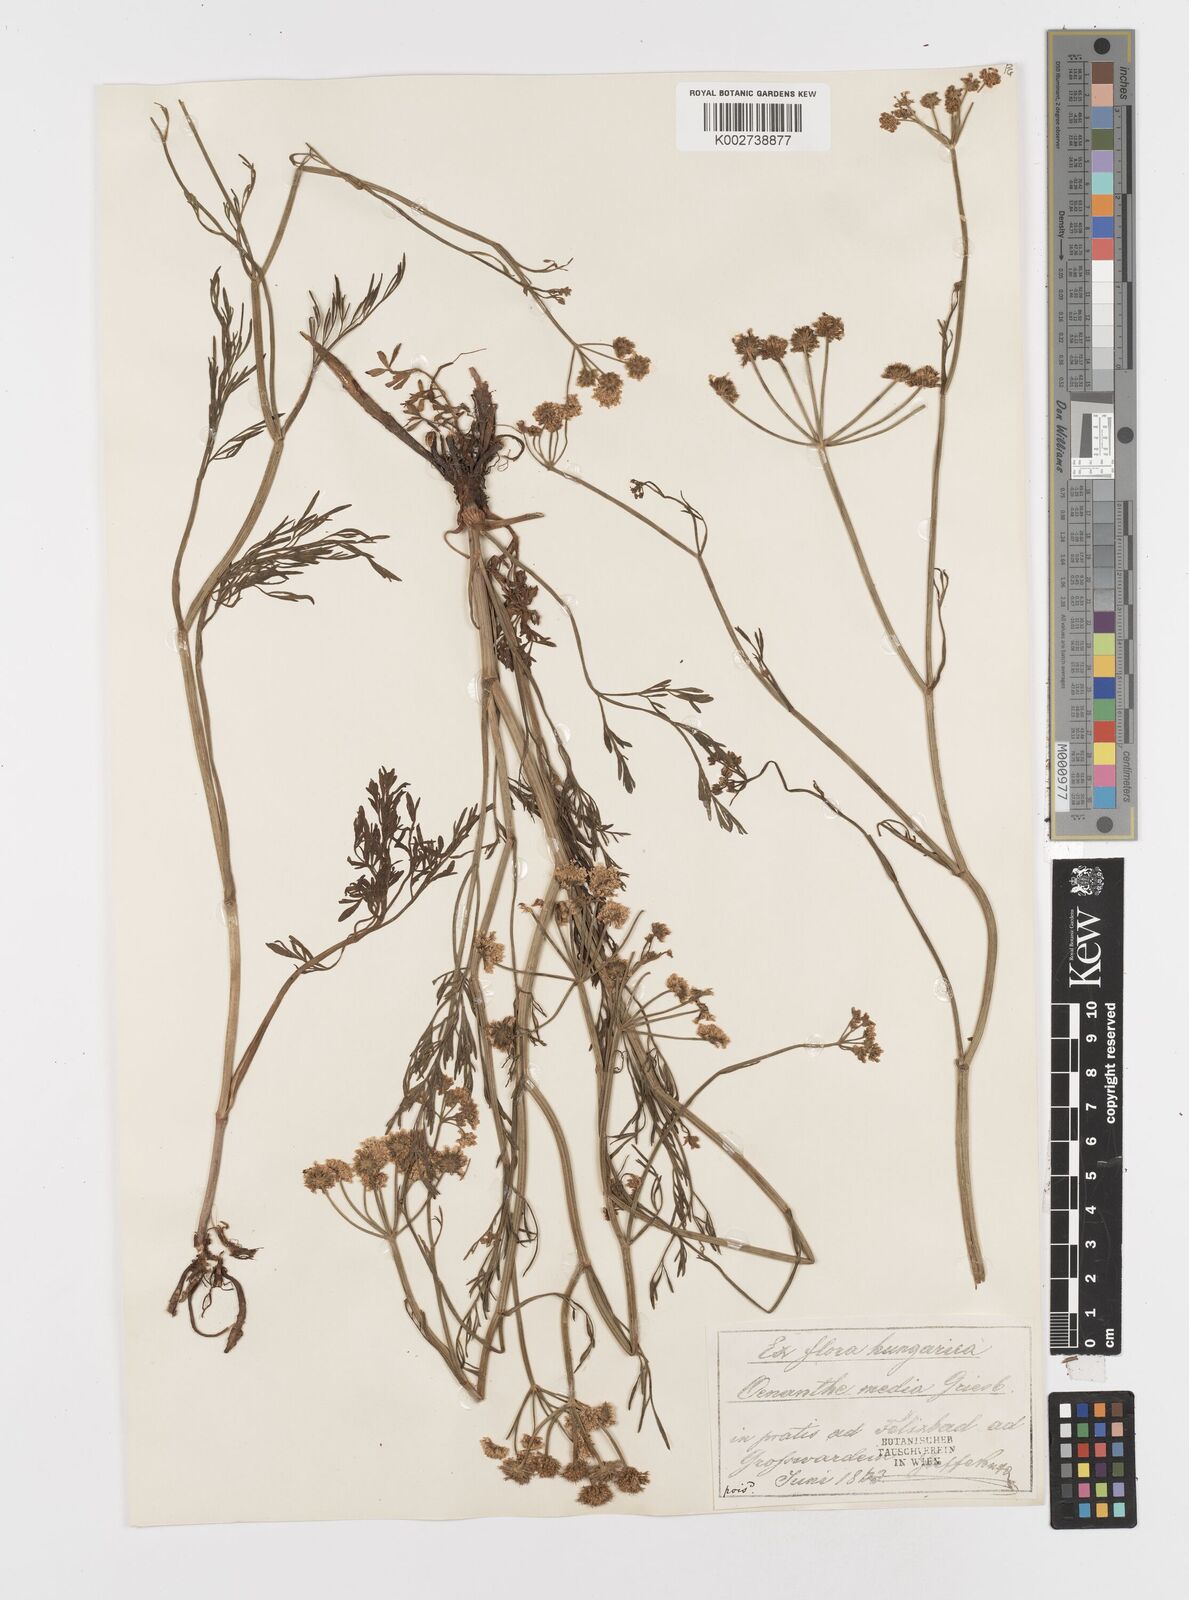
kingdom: Plantae
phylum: Tracheophyta
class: Magnoliopsida
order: Apiales
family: Apiaceae
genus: Oenanthe
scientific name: Oenanthe silaifolia
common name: Narrow-leaved water-dropwort
